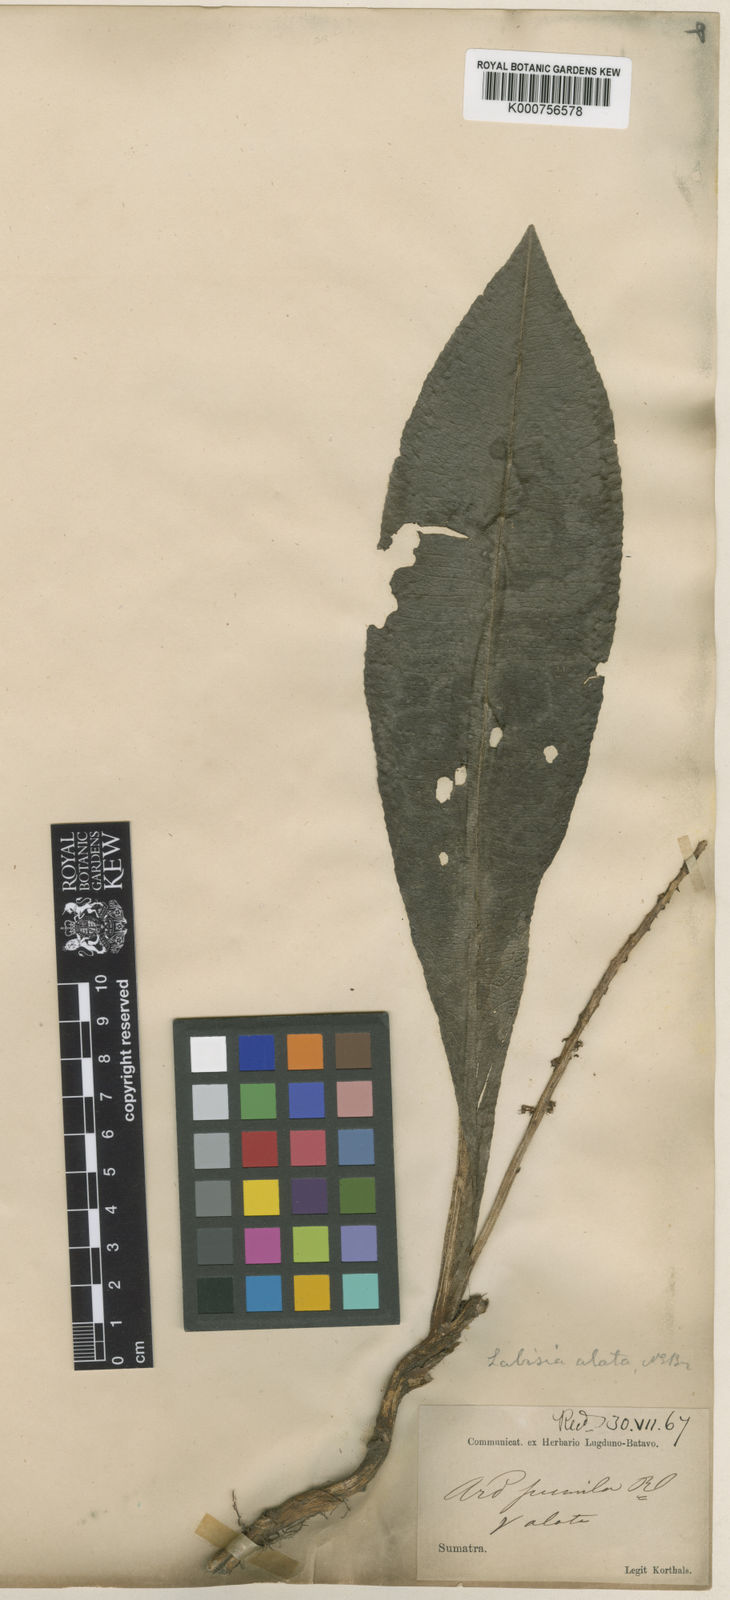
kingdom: Plantae
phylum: Tracheophyta
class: Magnoliopsida
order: Ericales
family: Primulaceae
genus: Labisia
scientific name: Labisia pumila
